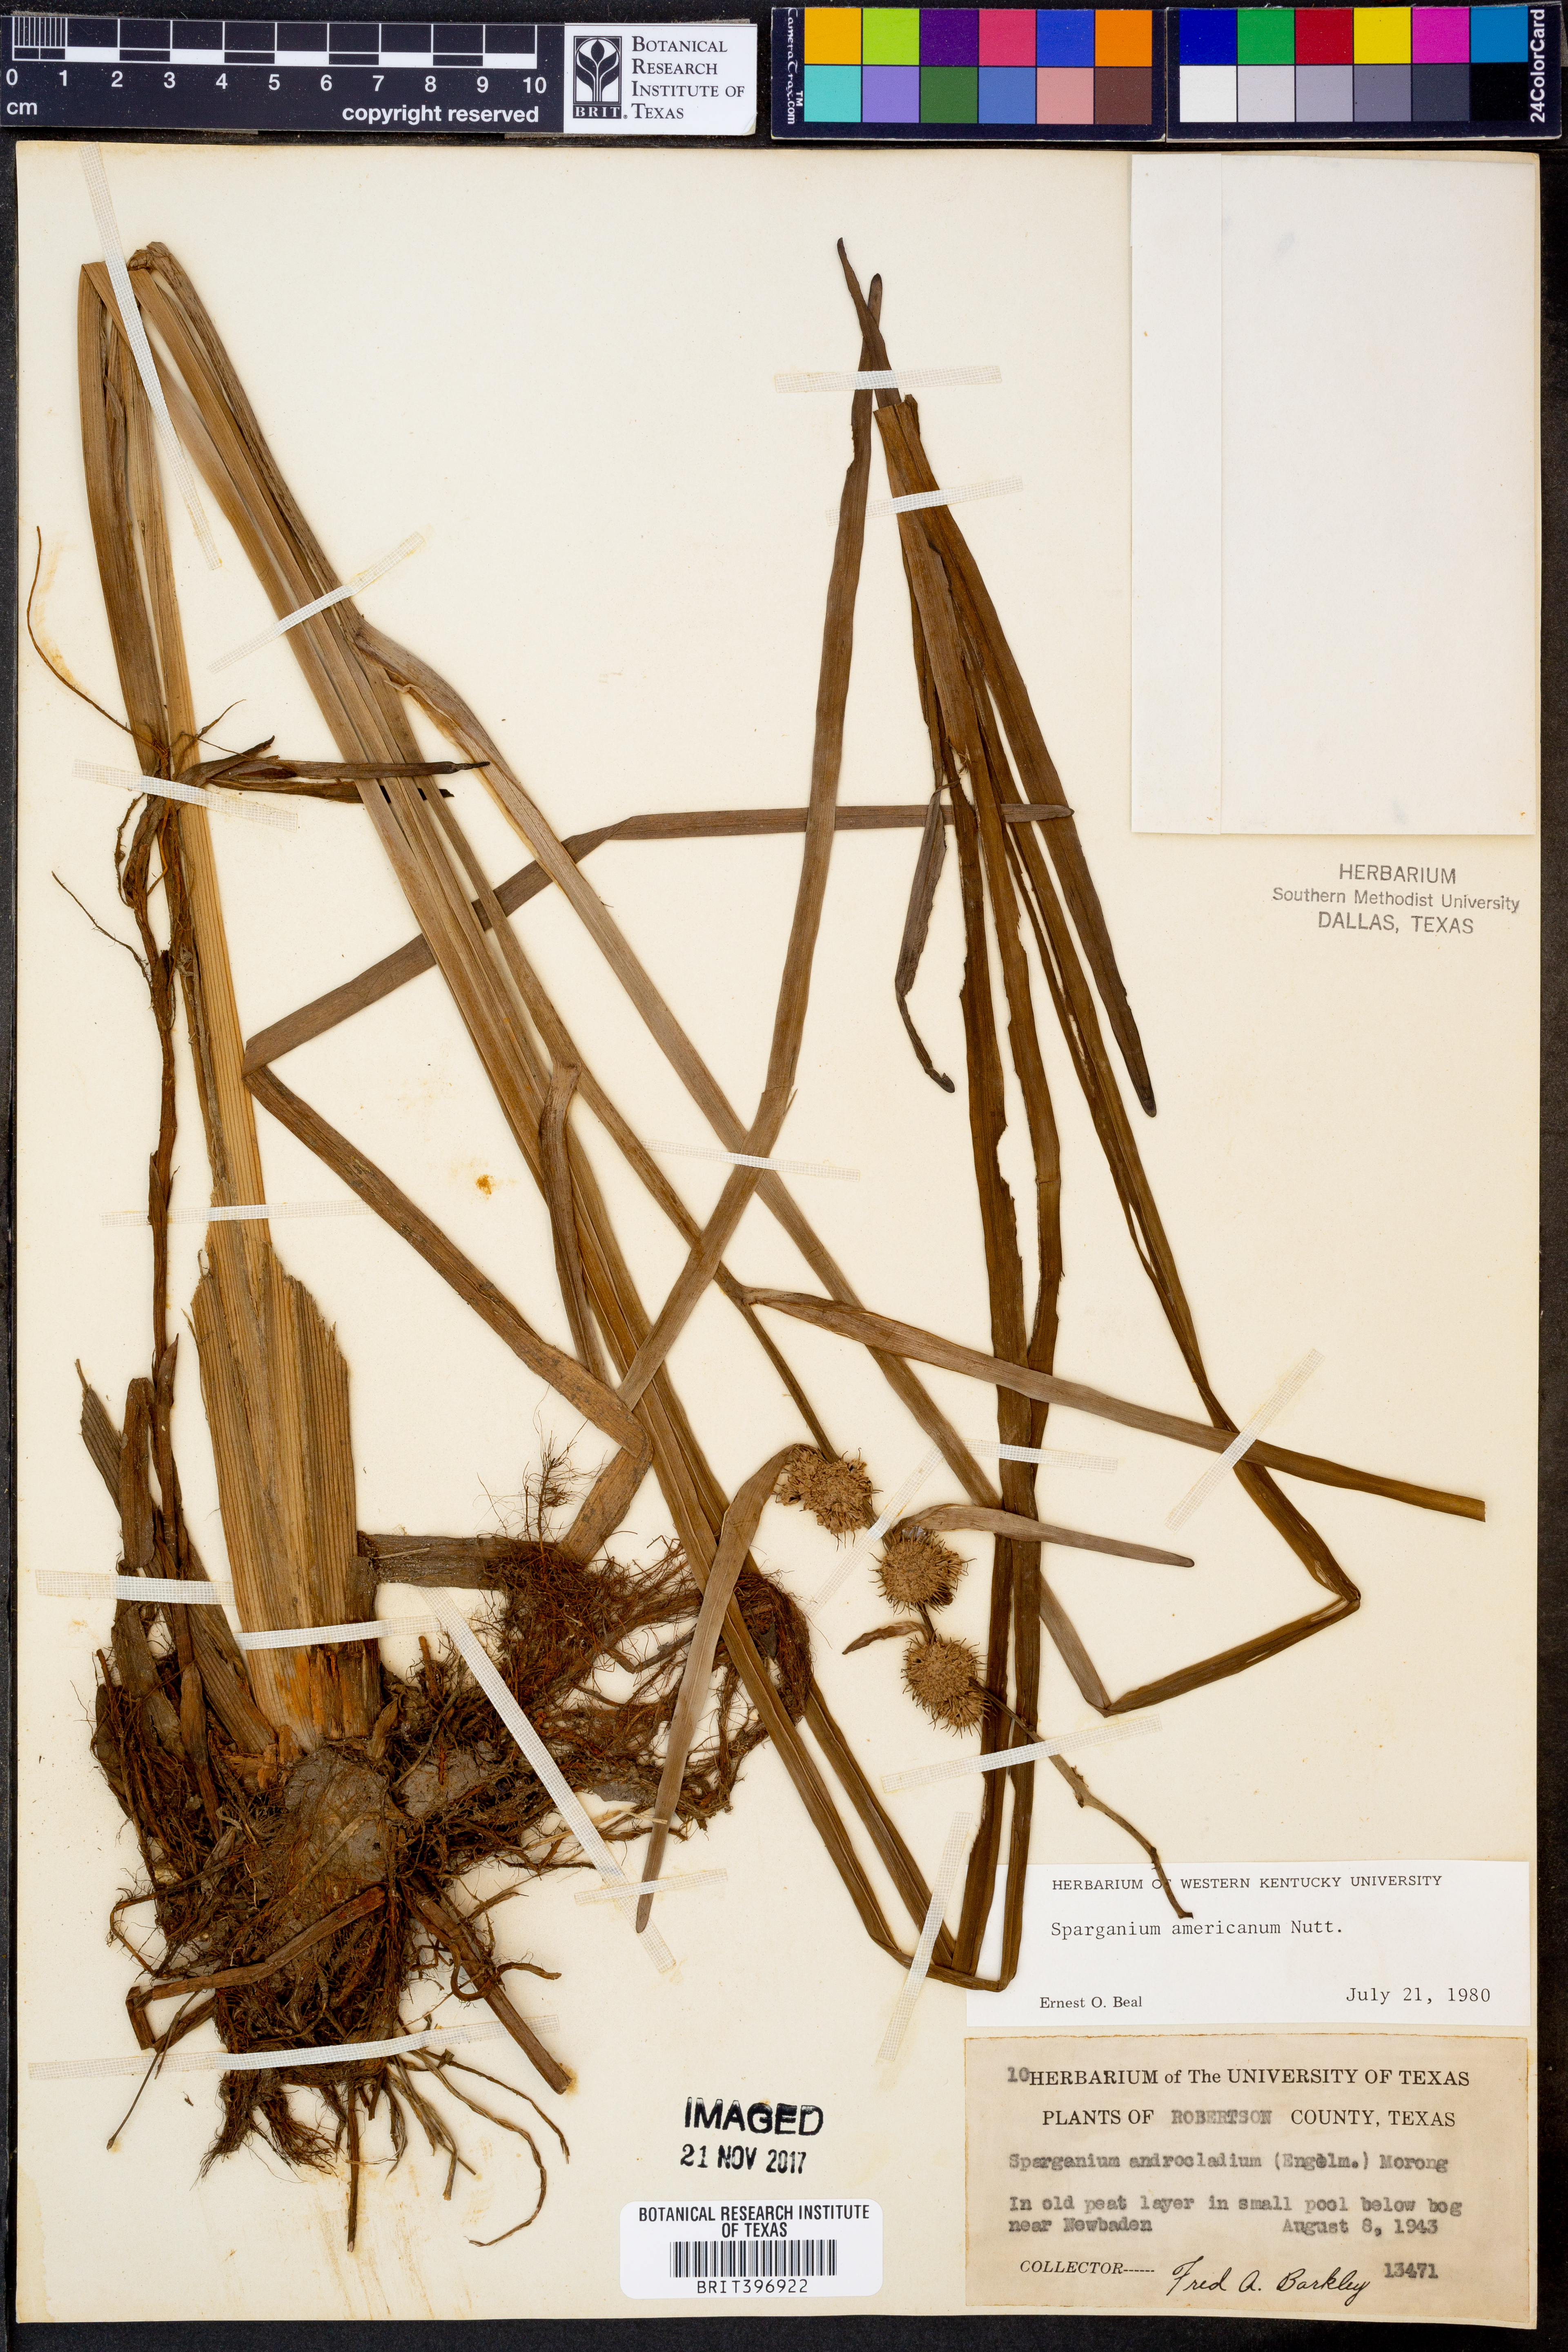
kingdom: Plantae
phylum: Tracheophyta
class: Liliopsida
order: Poales
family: Typhaceae
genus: Sparganium
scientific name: Sparganium americanum
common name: American burreed
